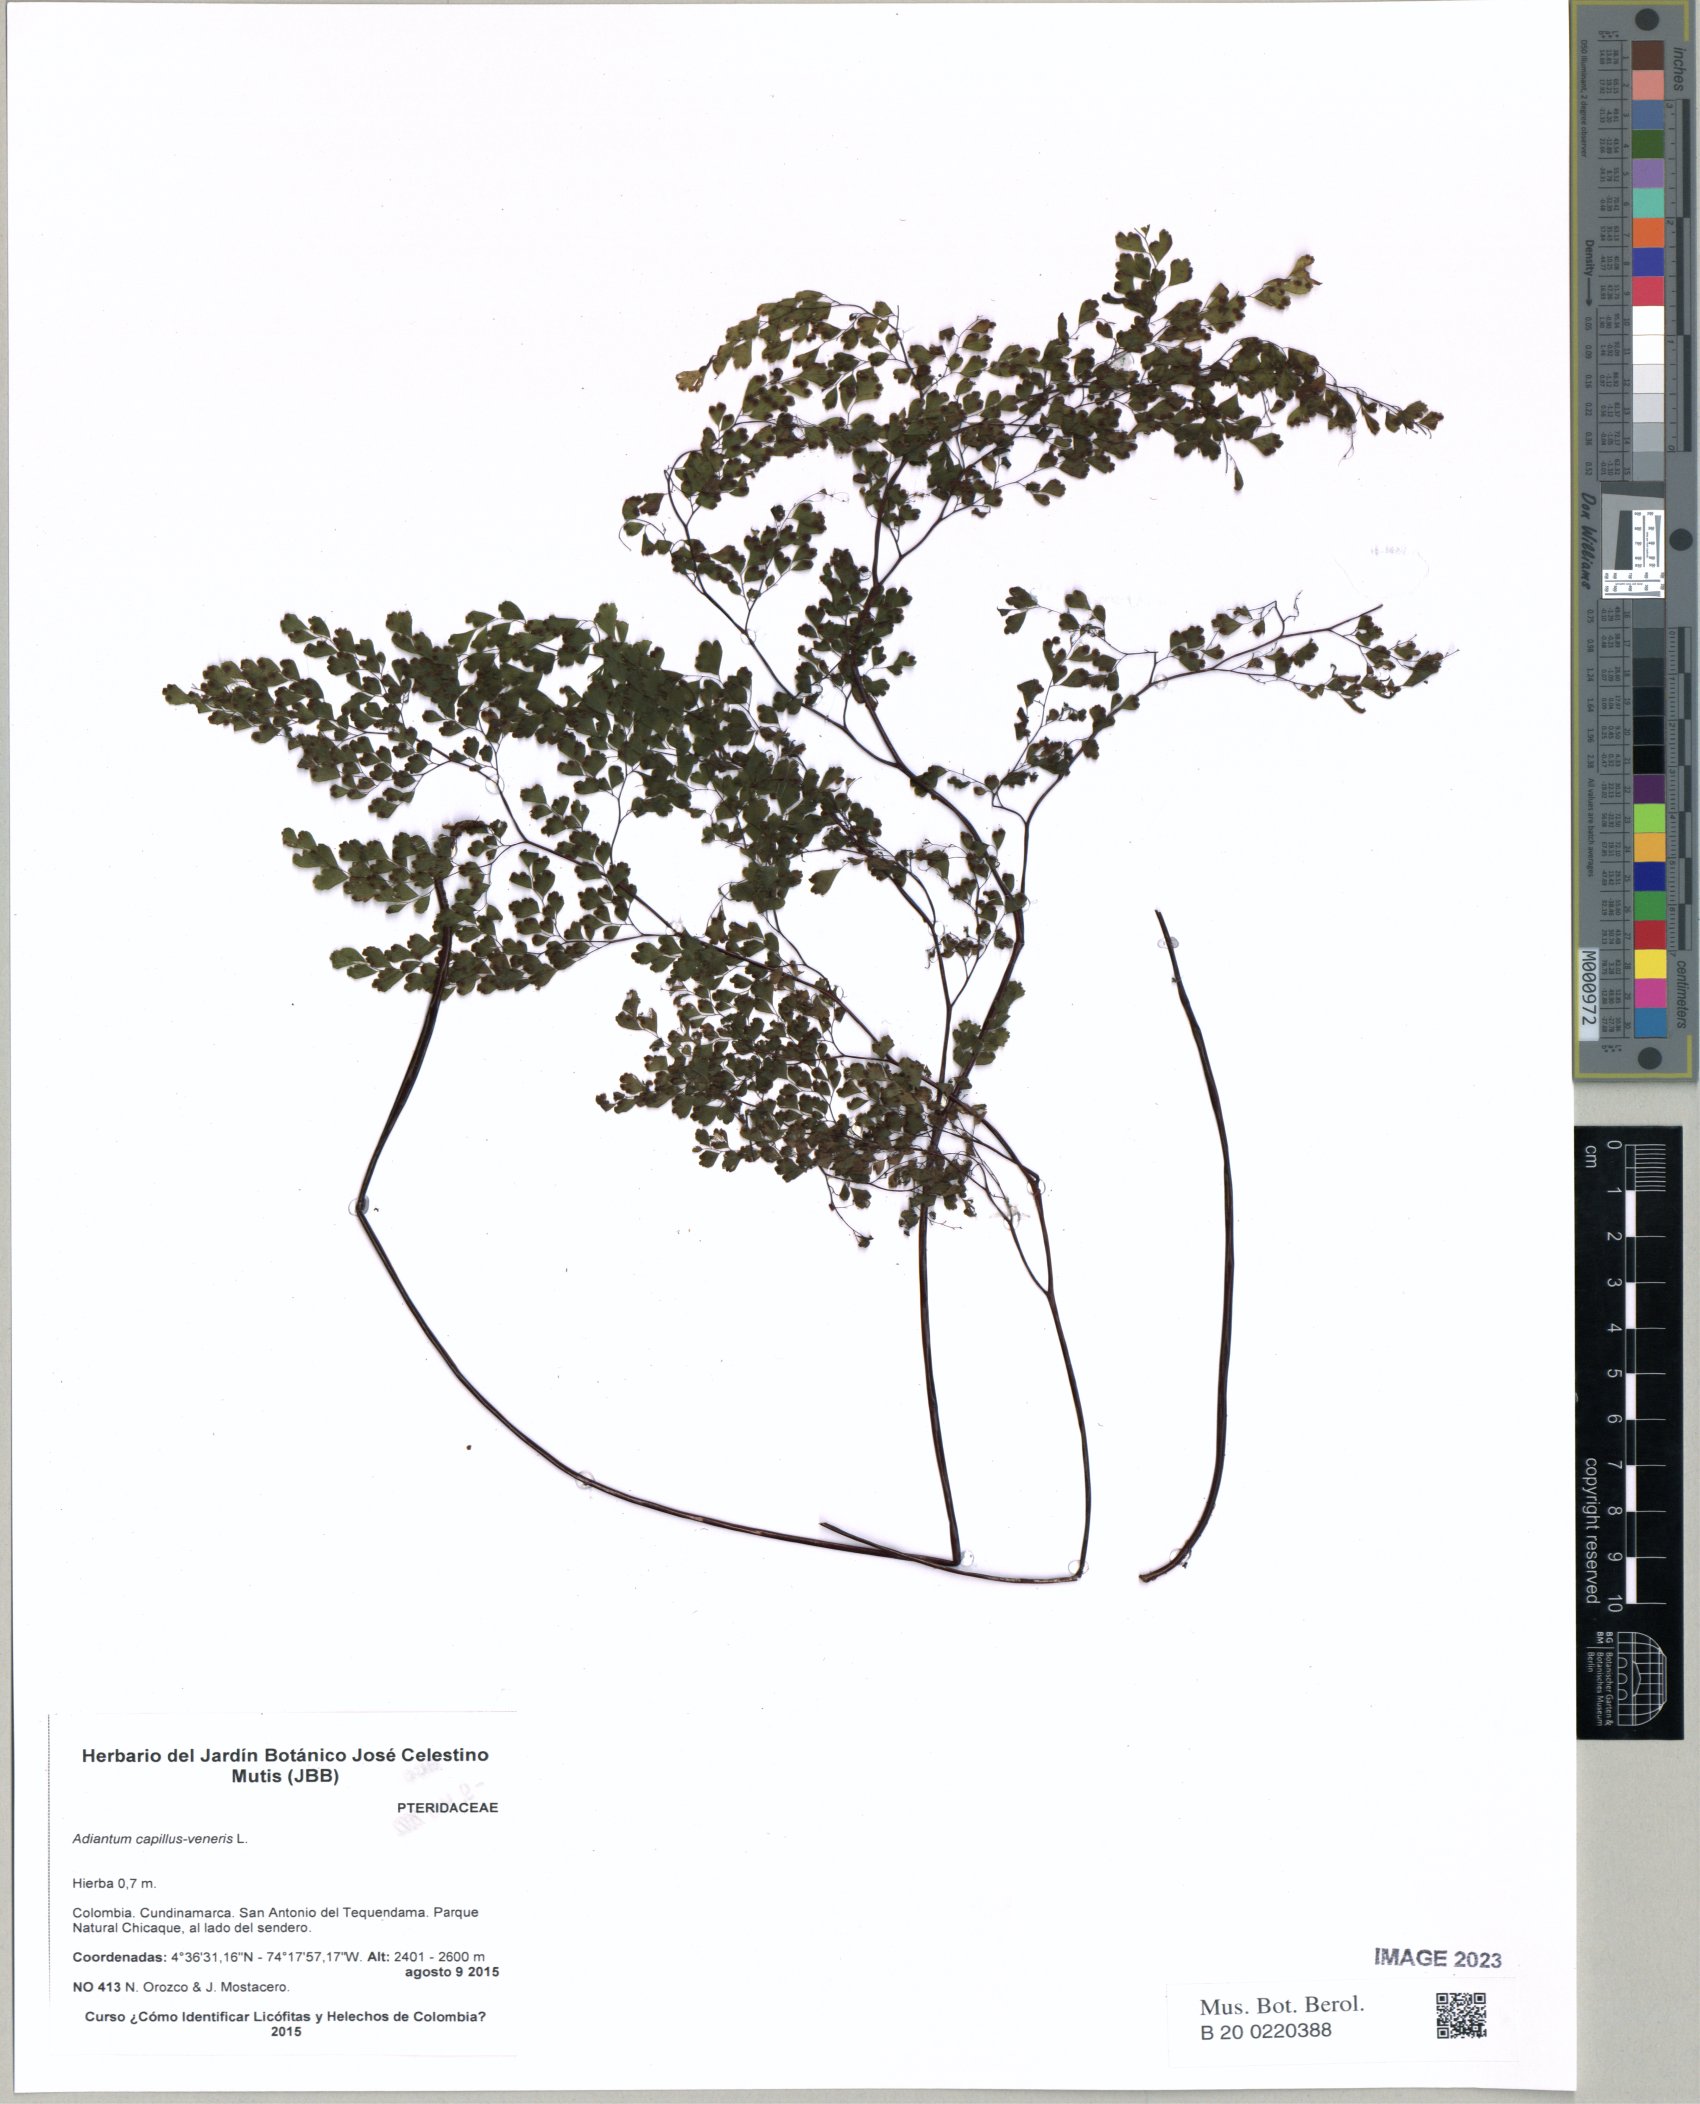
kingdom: Plantae
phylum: Tracheophyta
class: Polypodiopsida
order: Polypodiales
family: Pteridaceae
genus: Adiantum
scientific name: Adiantum capillus-veneris
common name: Maidenhair fern
